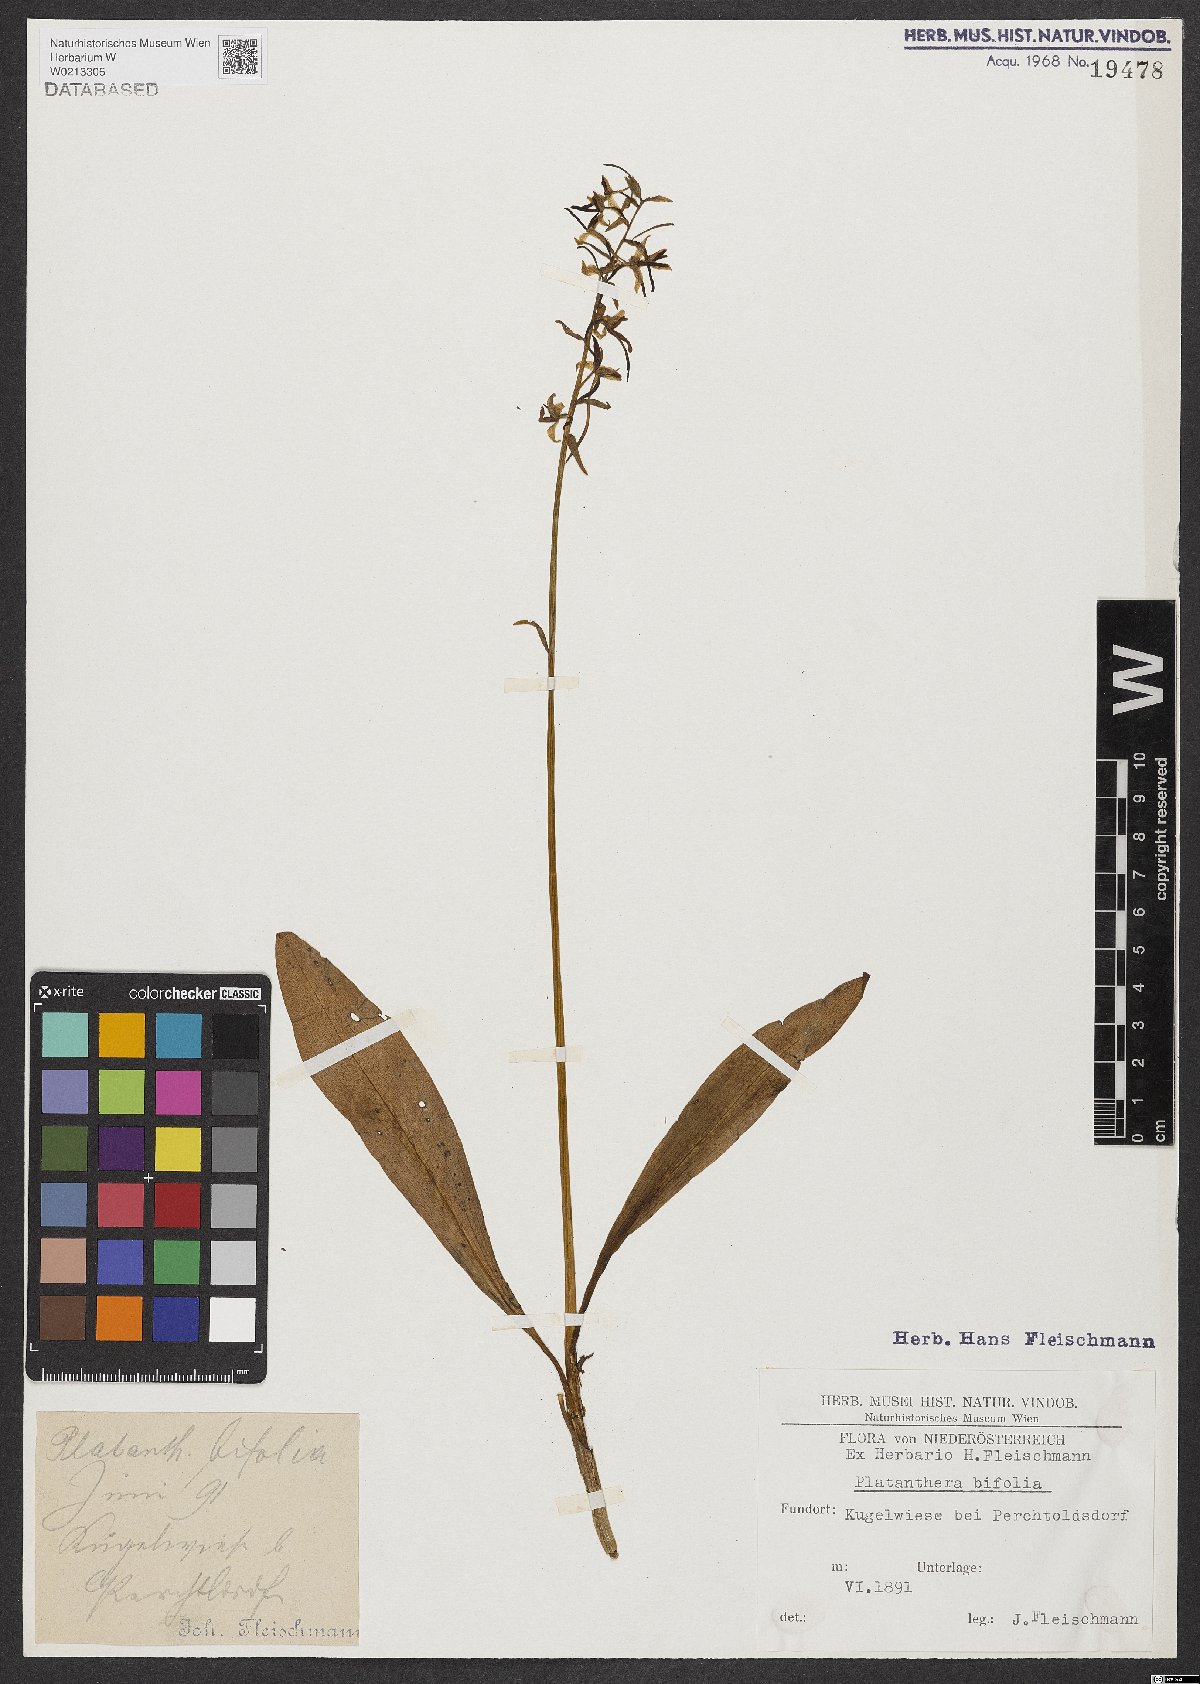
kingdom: Plantae
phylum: Tracheophyta
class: Liliopsida
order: Asparagales
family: Orchidaceae
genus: Platanthera
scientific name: Platanthera bifolia
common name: Lesser butterfly-orchid
